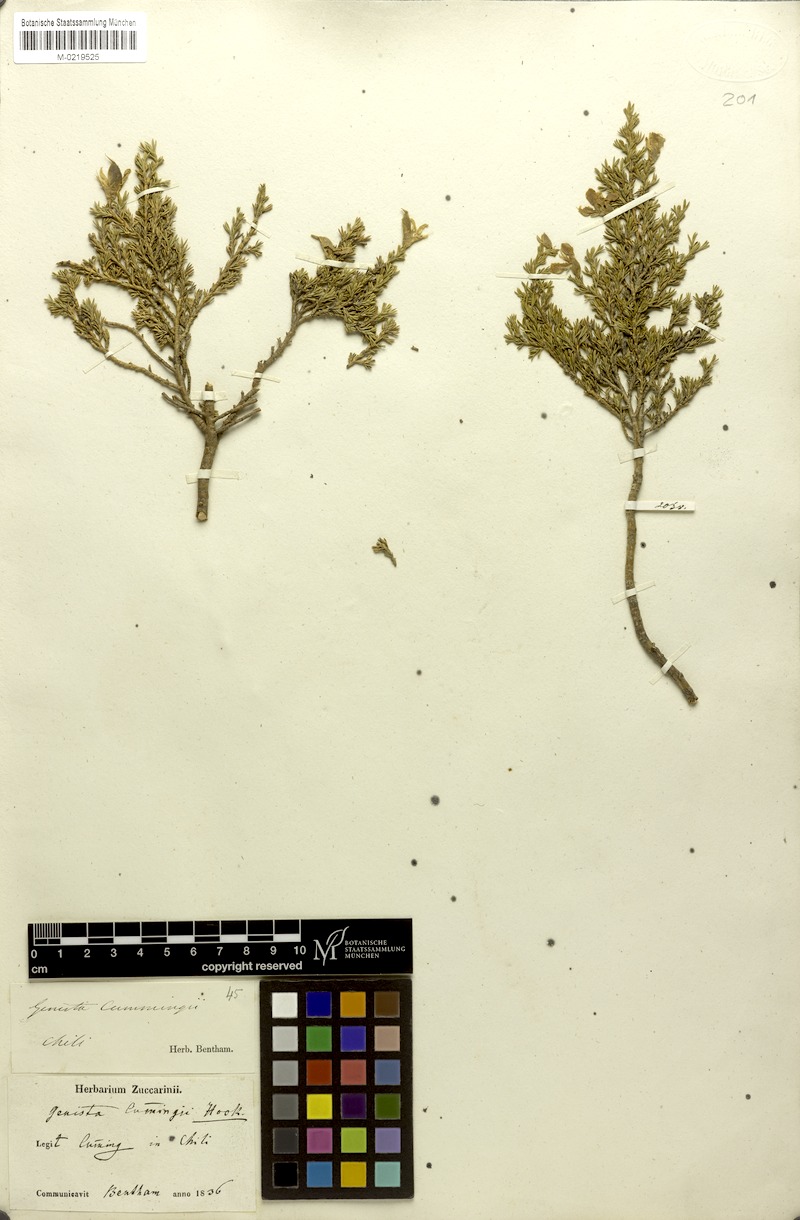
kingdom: Plantae
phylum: Tracheophyta
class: Magnoliopsida
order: Fabales
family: Fabaceae
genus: Anarthrophyllum
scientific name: Anarthrophyllum cumingii
